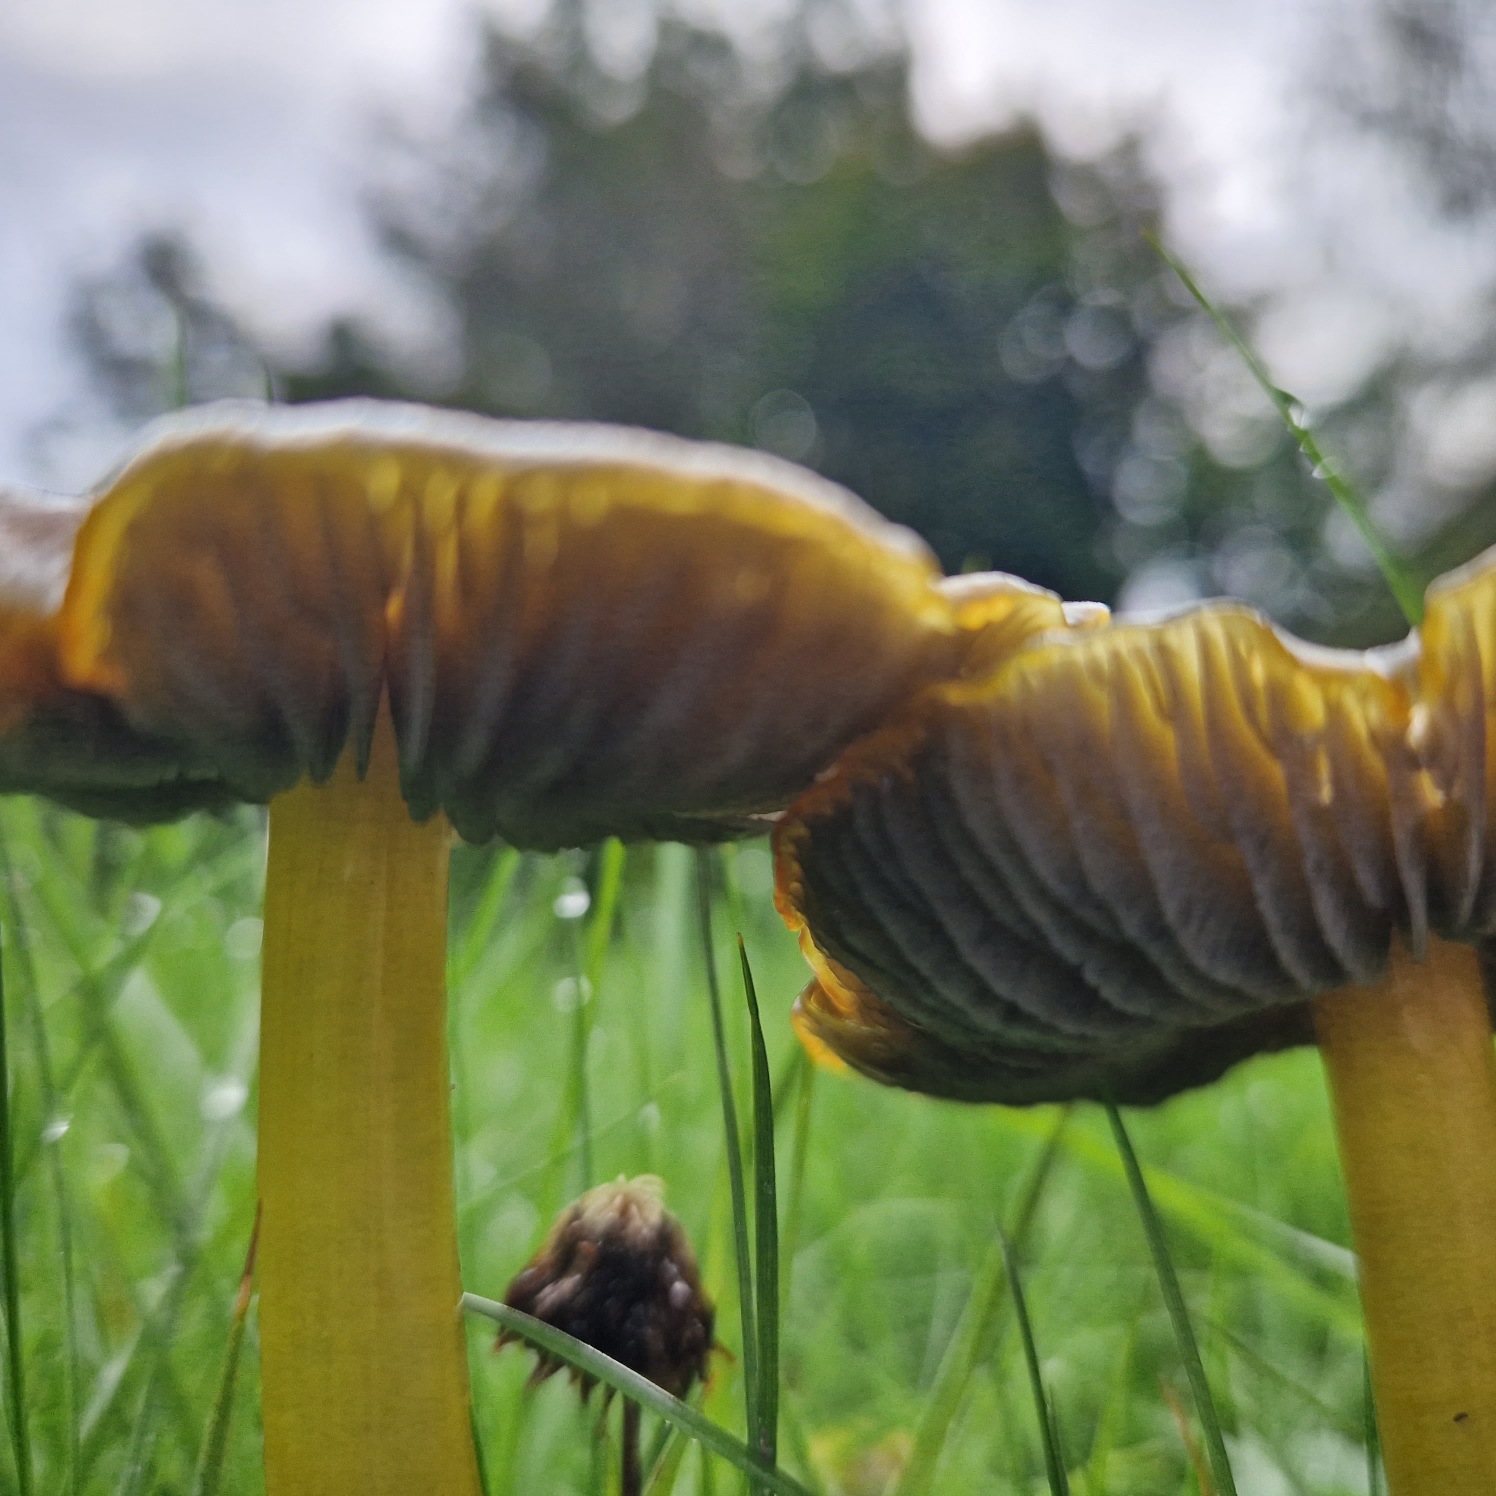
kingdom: Fungi
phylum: Basidiomycota
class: Agaricomycetes
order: Agaricales
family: Hygrophoraceae
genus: Hygrocybe
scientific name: Hygrocybe conica
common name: Kegle-vokshat
